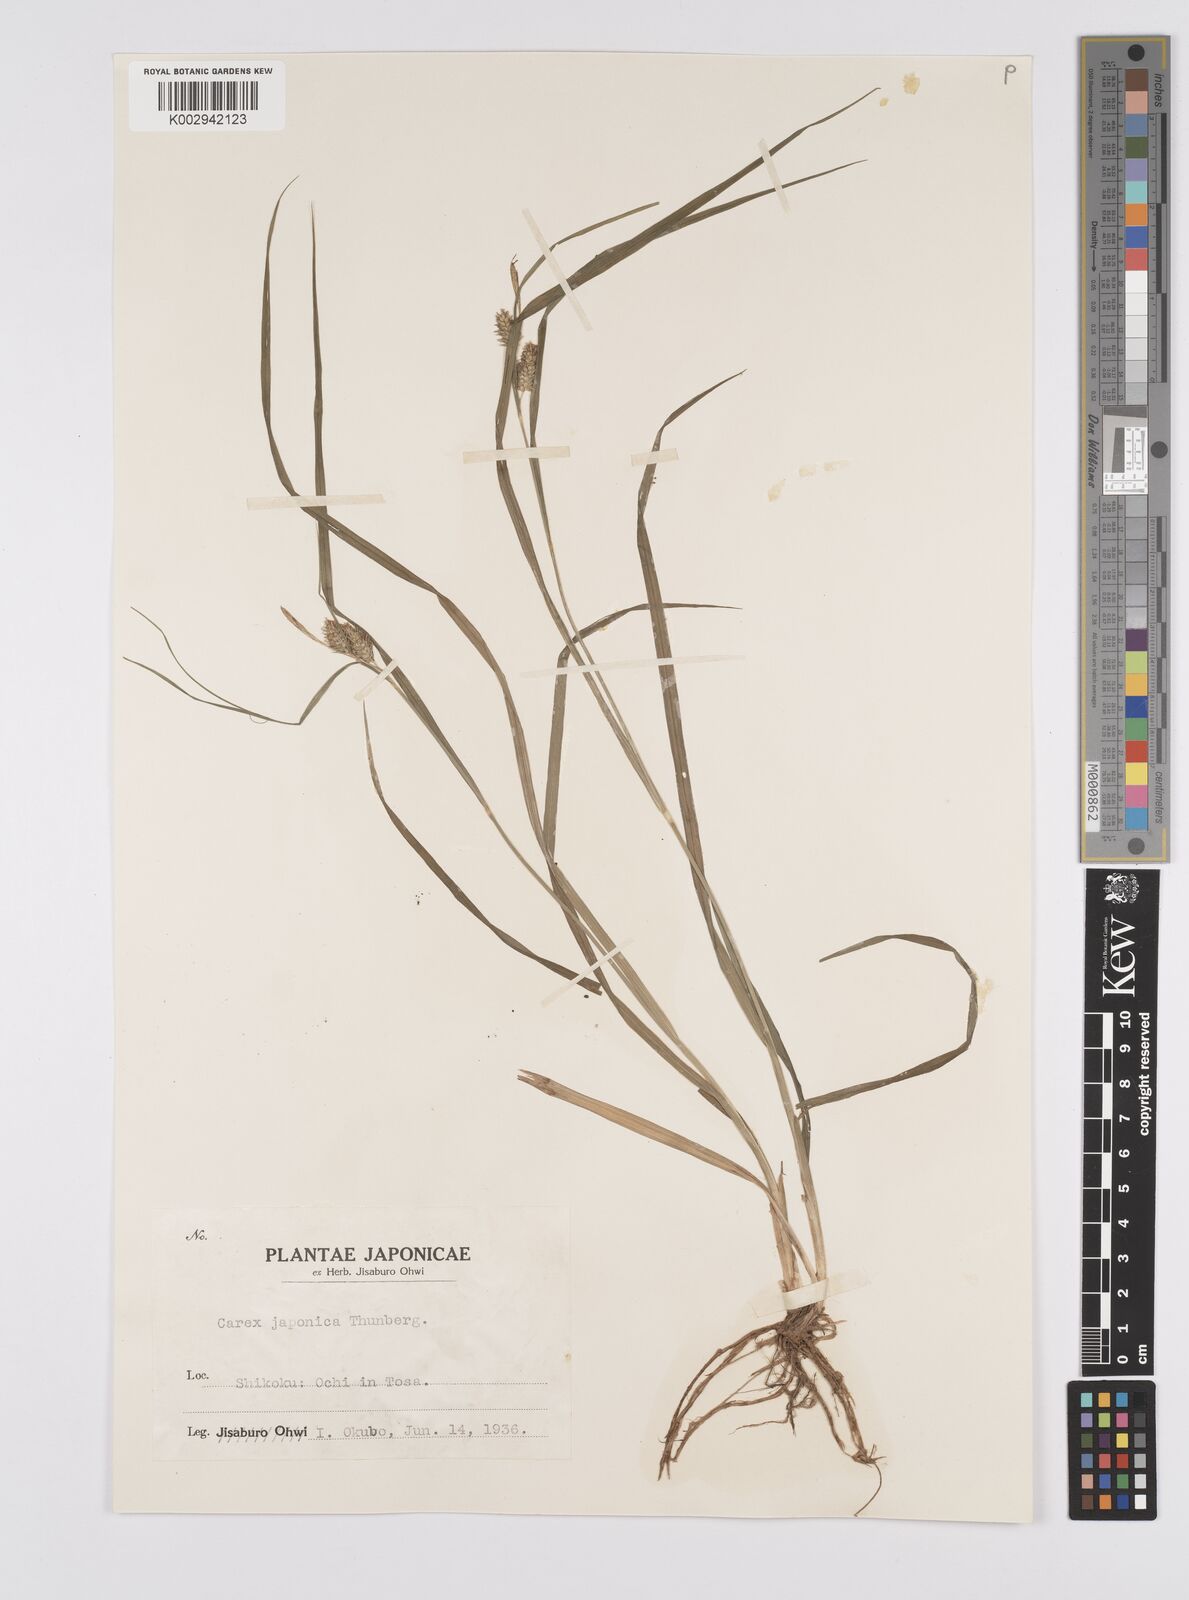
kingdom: Plantae
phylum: Tracheophyta
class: Liliopsida
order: Poales
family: Cyperaceae
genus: Carex
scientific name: Carex japonica
